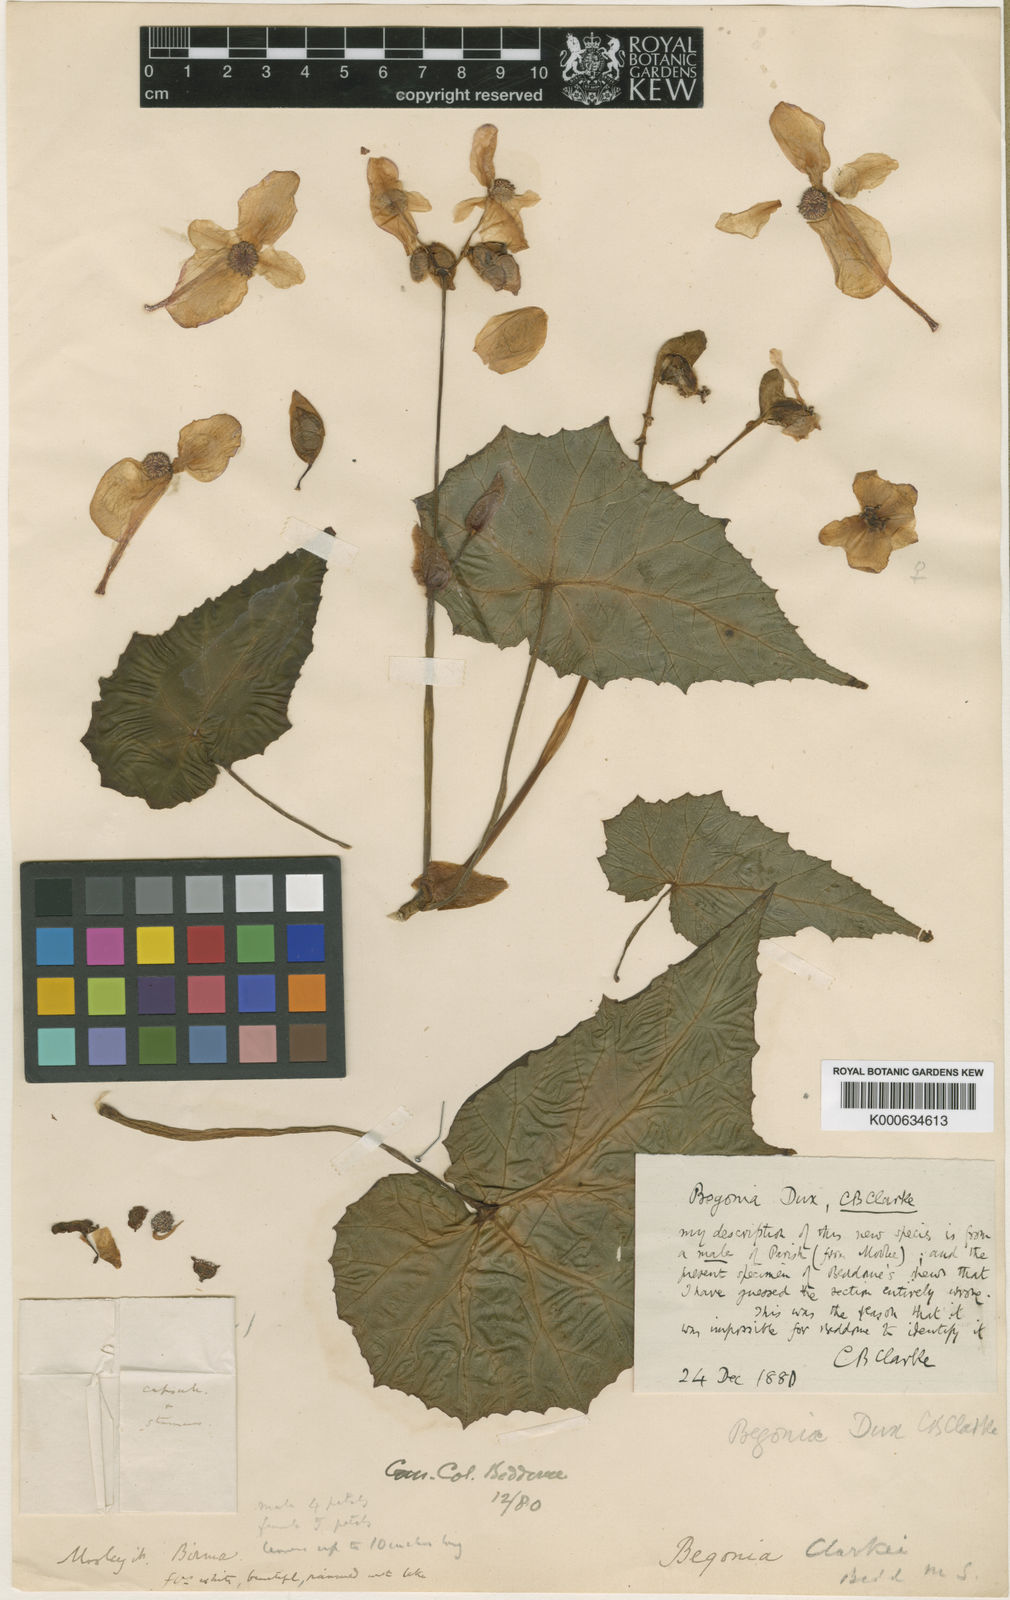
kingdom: Plantae
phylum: Tracheophyta
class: Magnoliopsida
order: Cucurbitales
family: Begoniaceae
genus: Begonia
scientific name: Begonia dux
